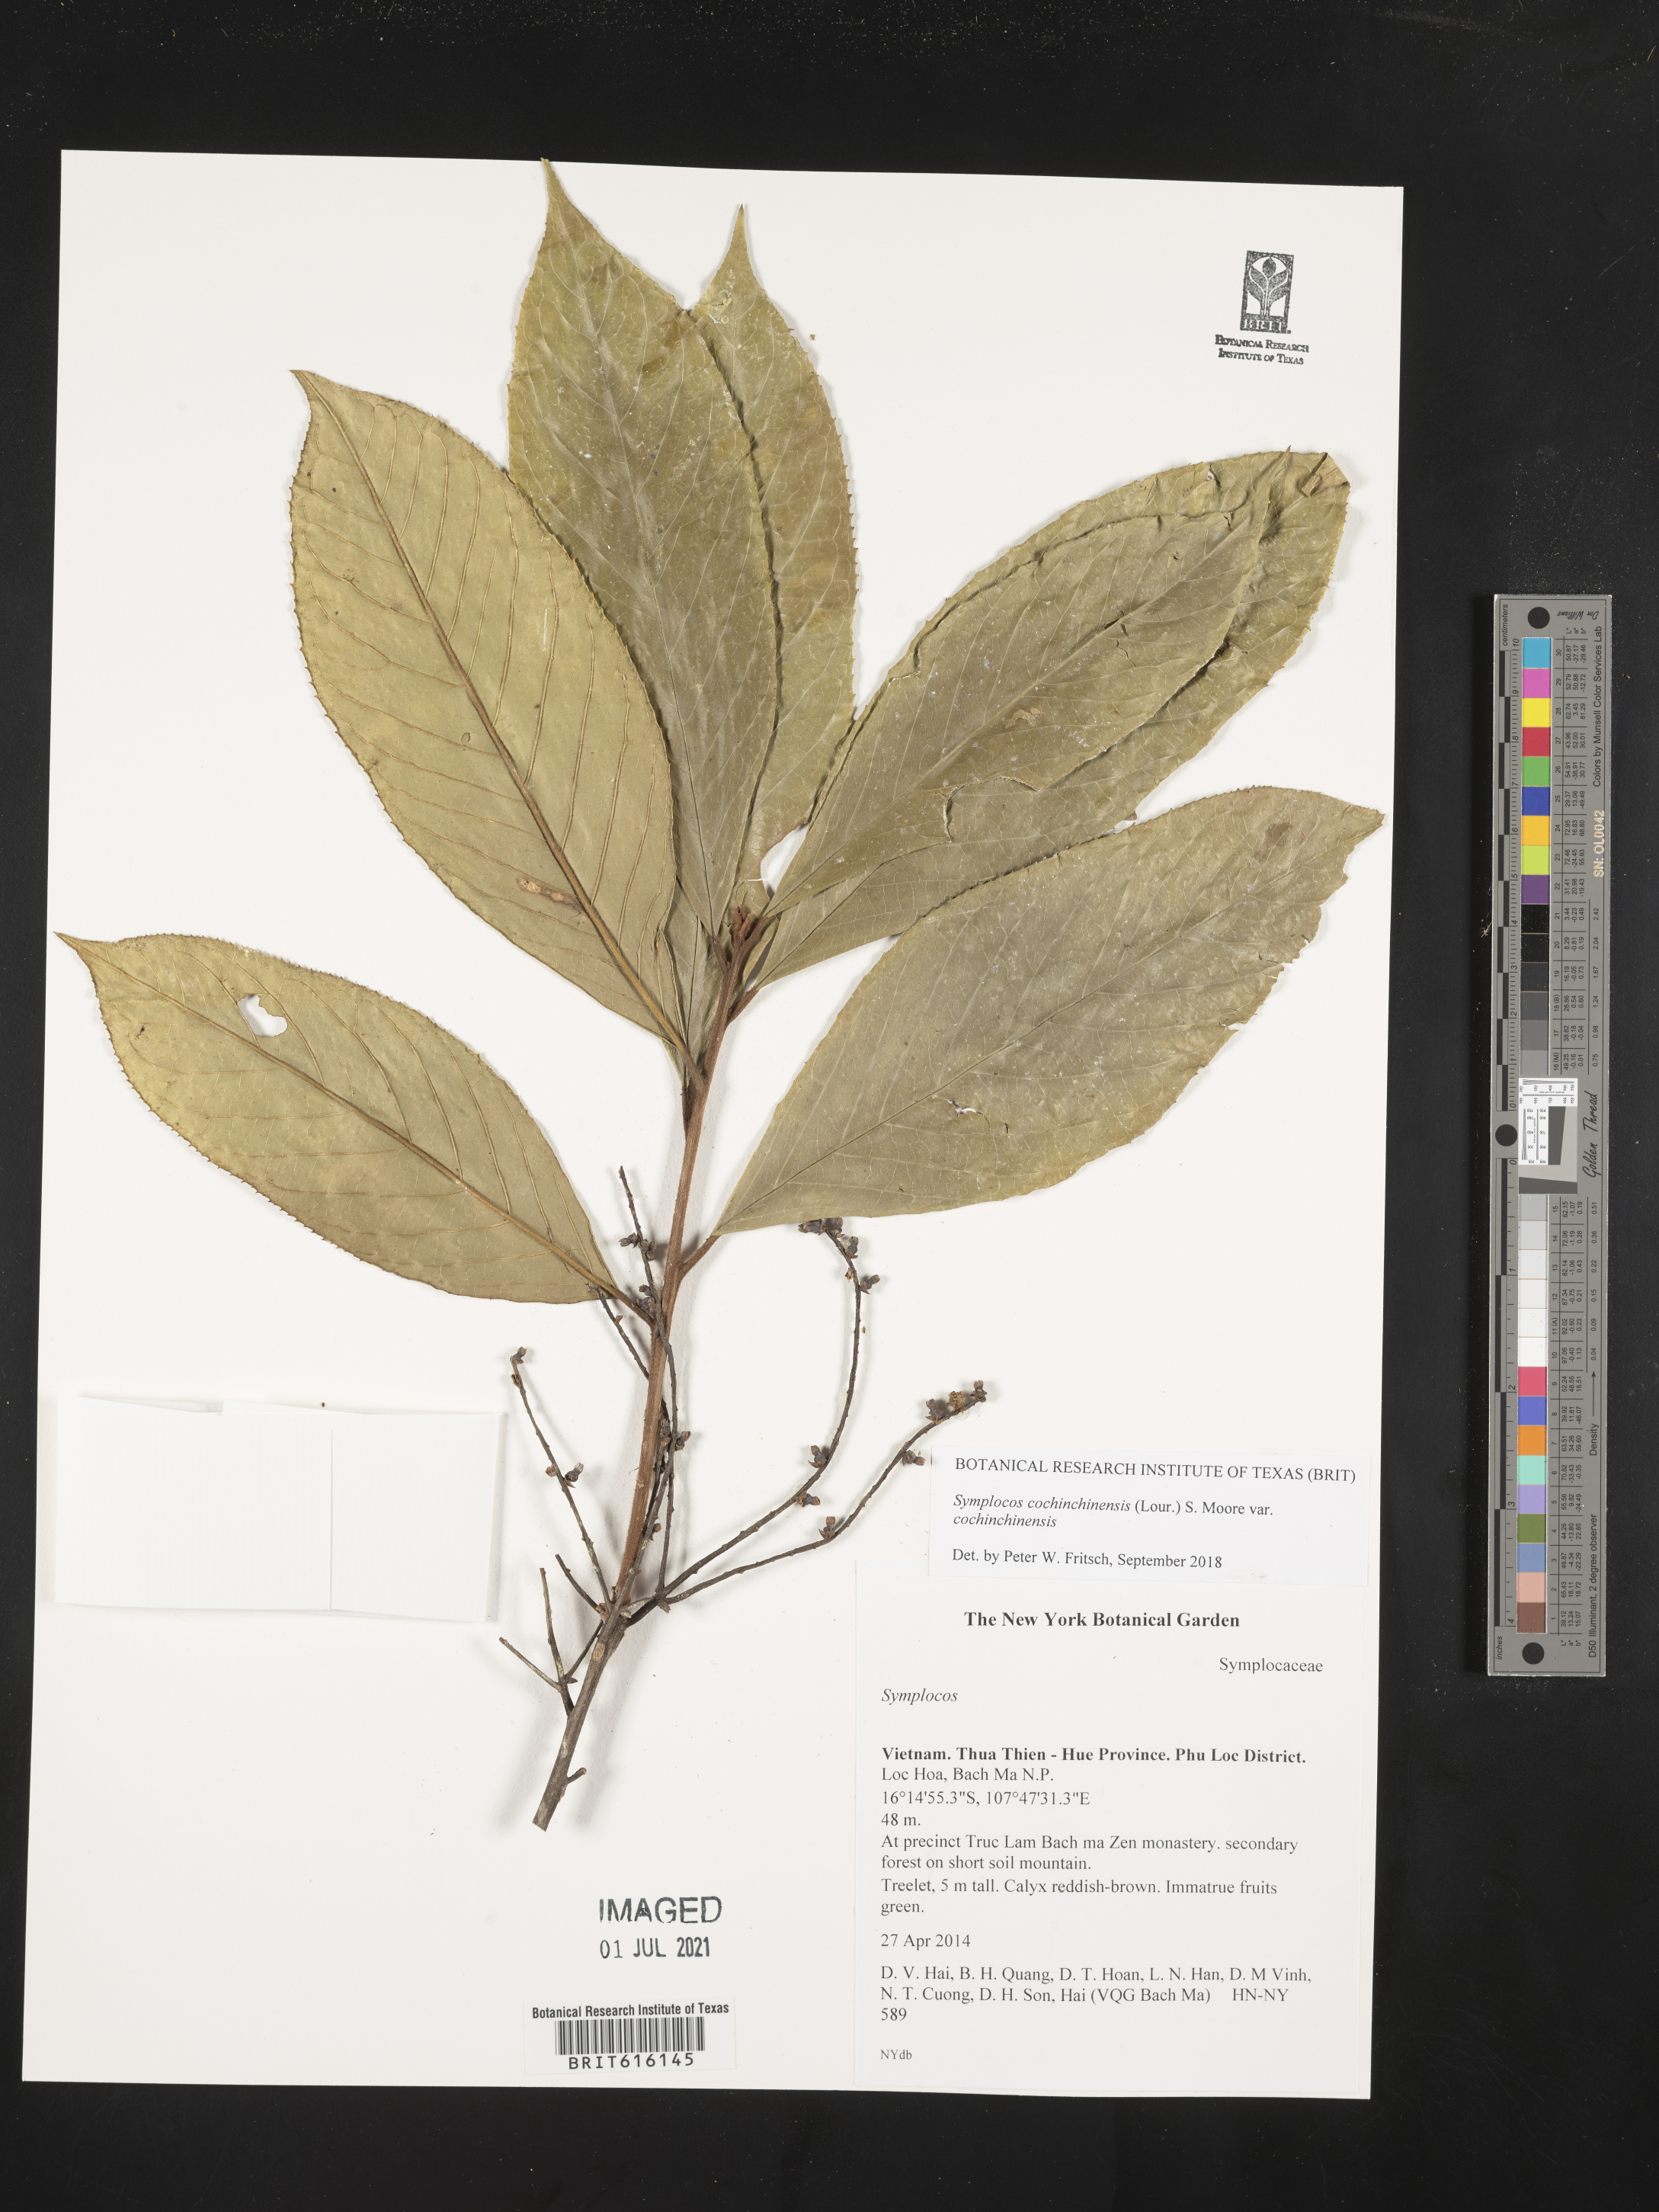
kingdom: Plantae
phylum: Tracheophyta
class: Magnoliopsida
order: Ericales
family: Symplocaceae
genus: Symplocos
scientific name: Symplocos cochinchinensis
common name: Buff hazelwood
